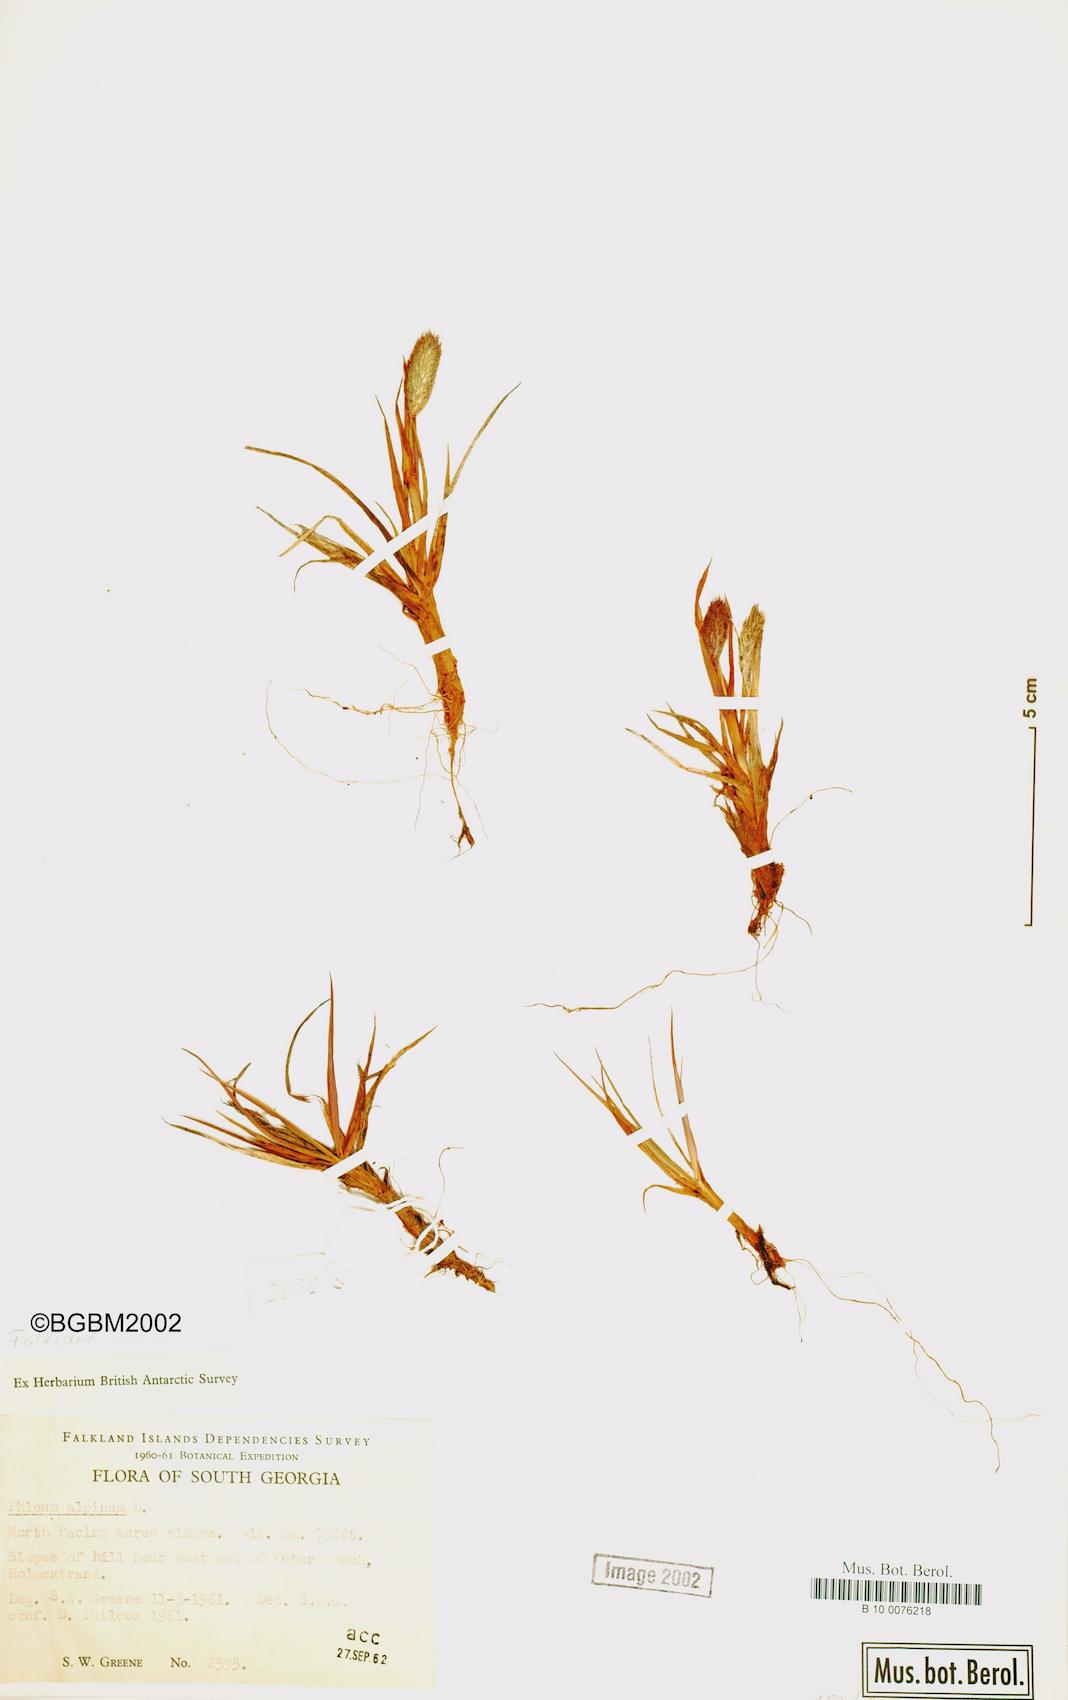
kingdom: Plantae
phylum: Tracheophyta
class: Liliopsida
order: Poales
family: Poaceae
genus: Phleum
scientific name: Phleum alpinum
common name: Alpine cat's-tail
